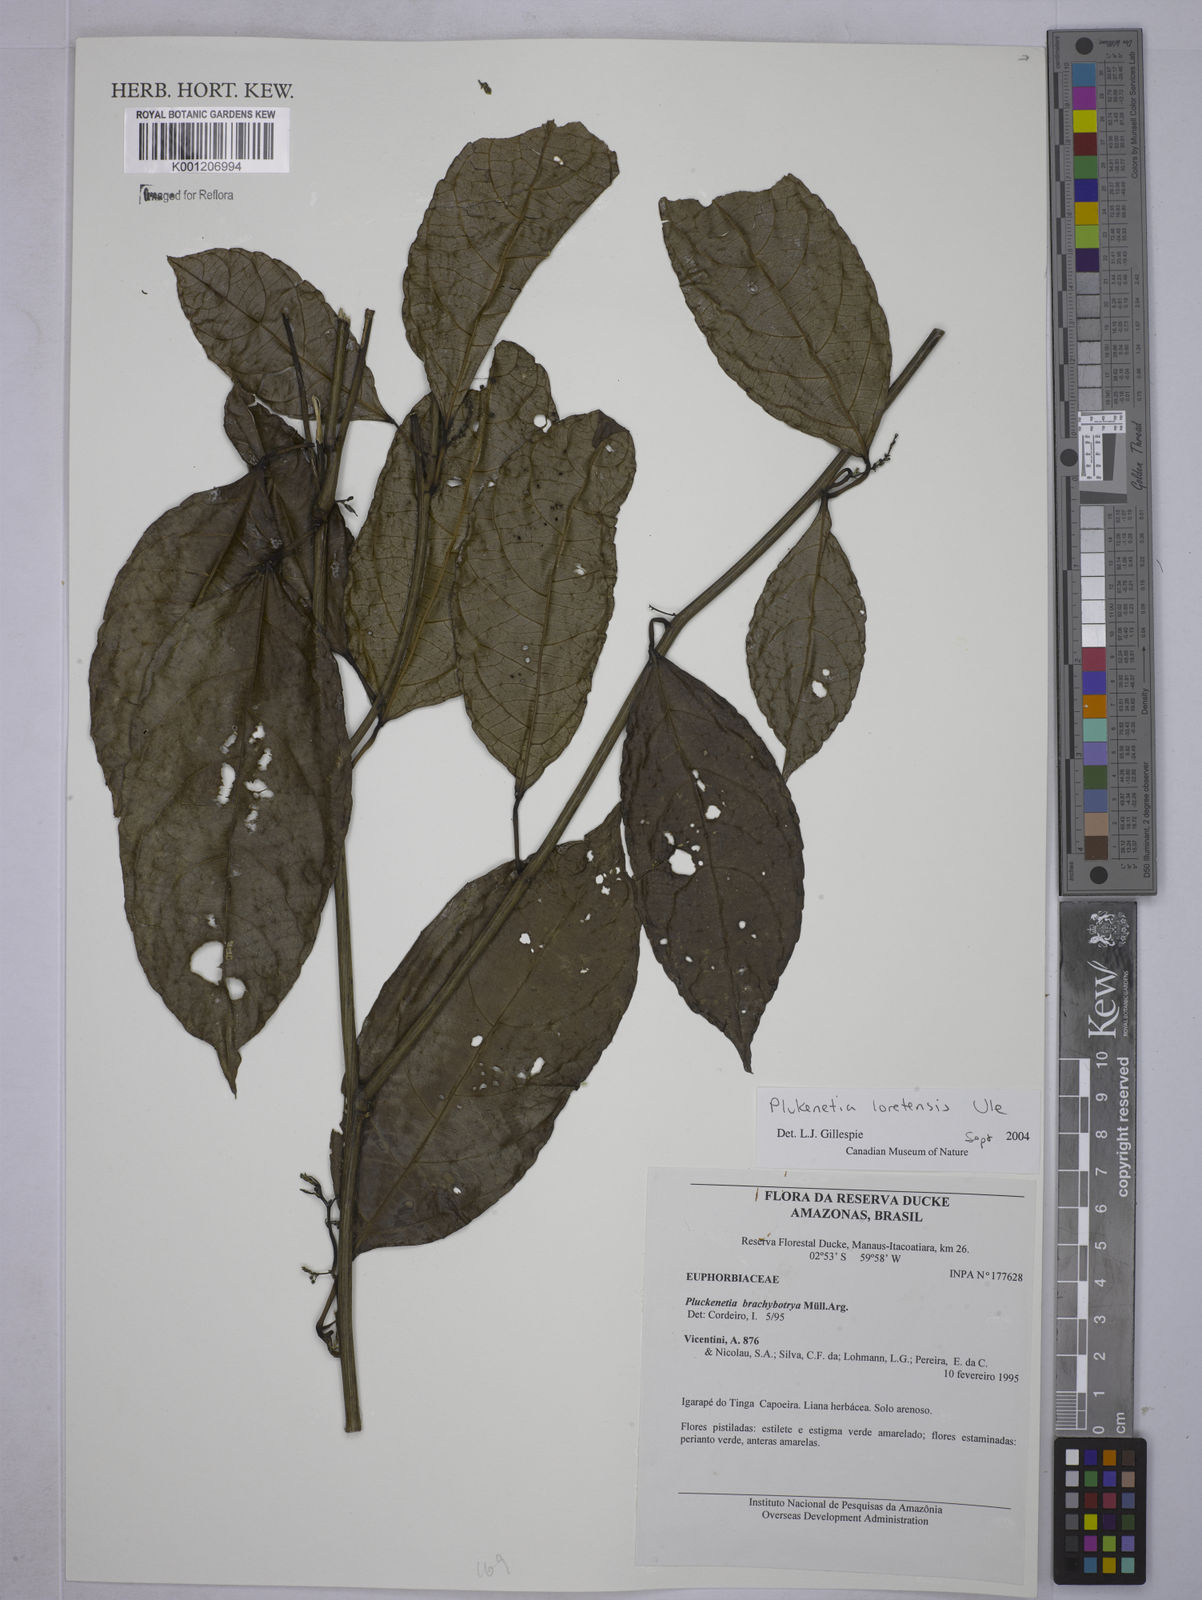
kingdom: Plantae
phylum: Tracheophyta
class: Magnoliopsida
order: Malpighiales
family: Euphorbiaceae
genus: Plukenetia
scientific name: Plukenetia loretensis
